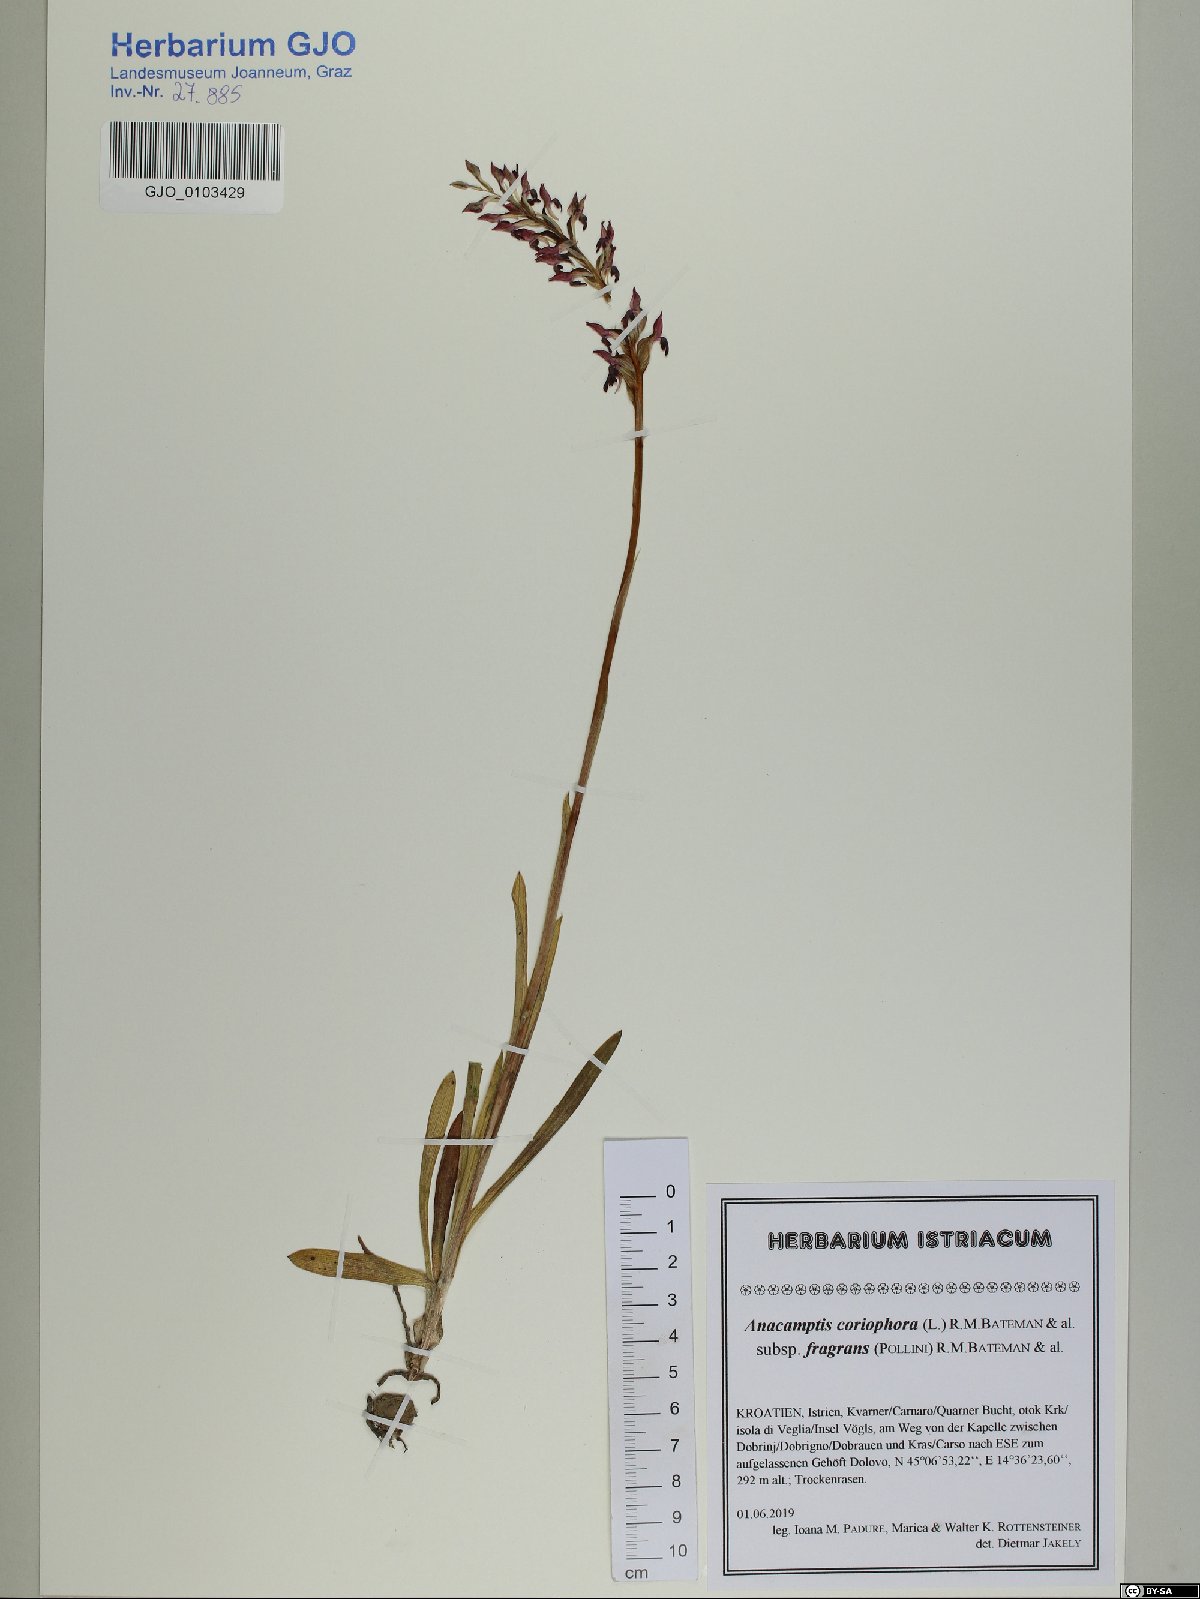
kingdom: Plantae
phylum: Tracheophyta
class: Liliopsida
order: Asparagales
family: Orchidaceae
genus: Anacamptis
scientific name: Anacamptis coriophora
